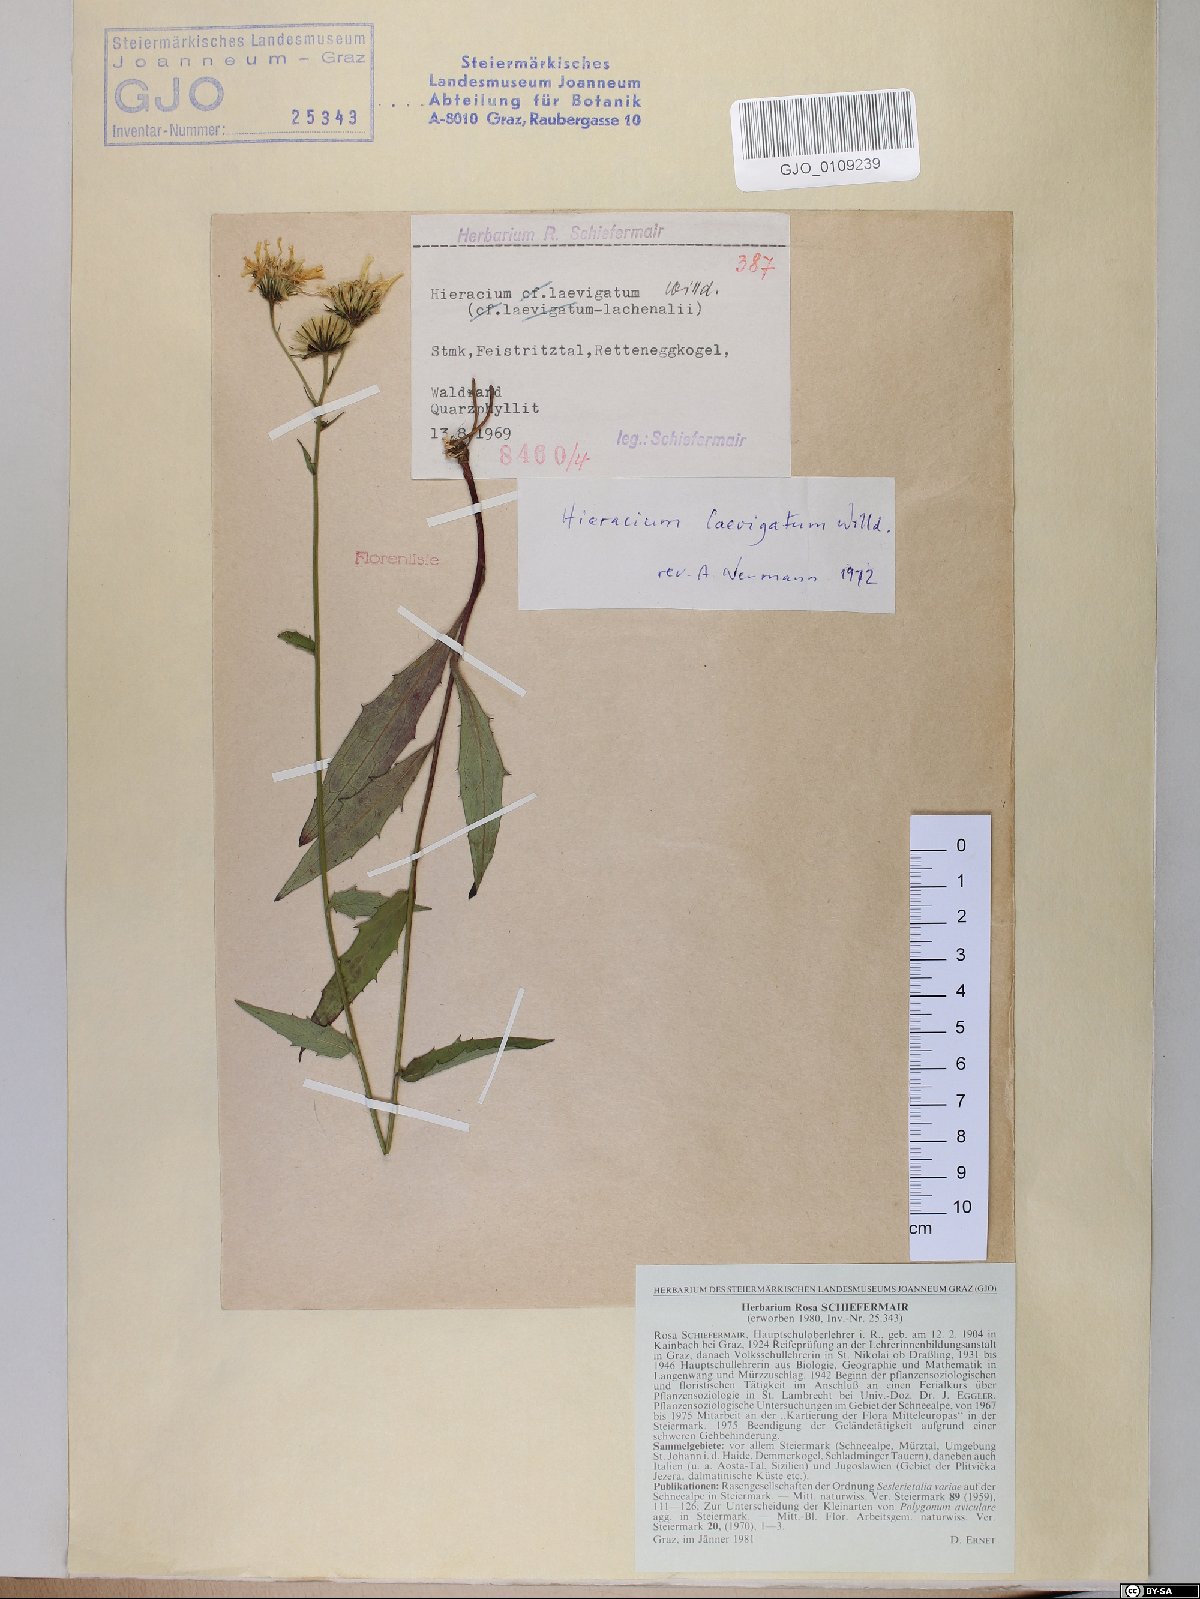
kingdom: Plantae
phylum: Tracheophyta
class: Magnoliopsida
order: Asterales
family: Asteraceae
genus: Hieracium
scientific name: Hieracium laevigatum
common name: Smooth hawkweed
